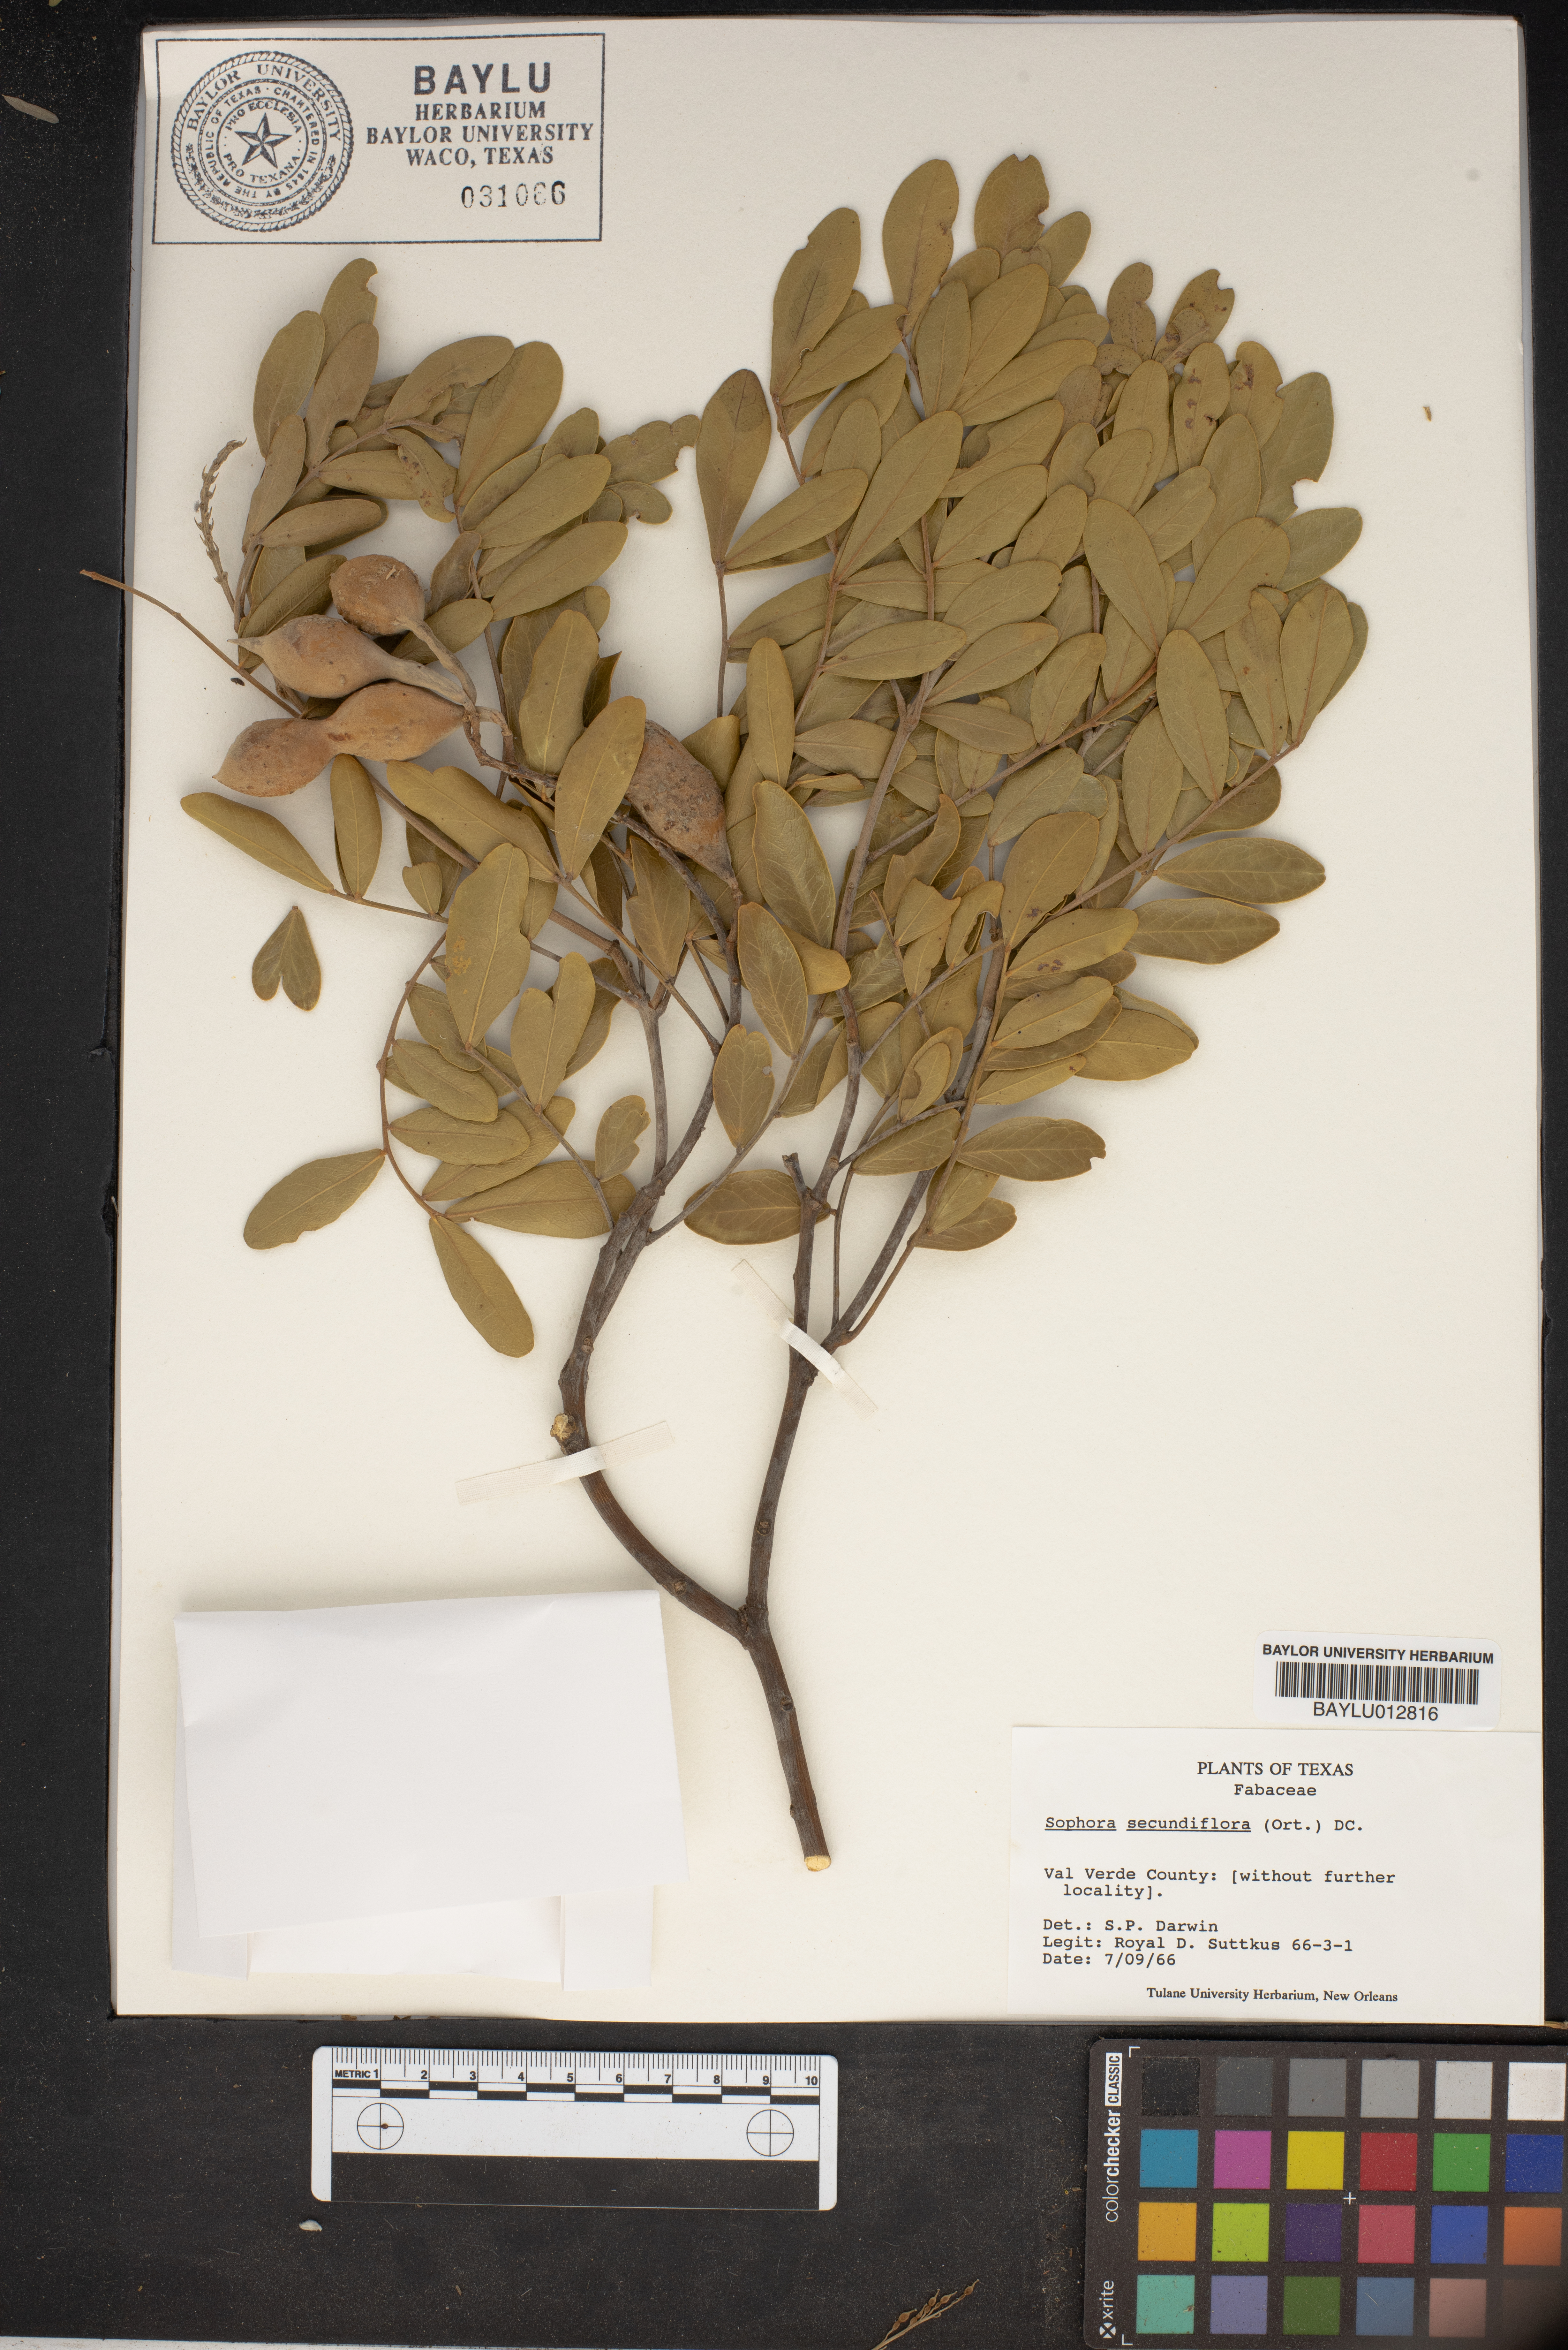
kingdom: Plantae
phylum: Tracheophyta
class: Magnoliopsida
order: Fabales
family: Fabaceae
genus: Dermatophyllum
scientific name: Dermatophyllum secundiflorum
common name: Texas-mountain-laurel
